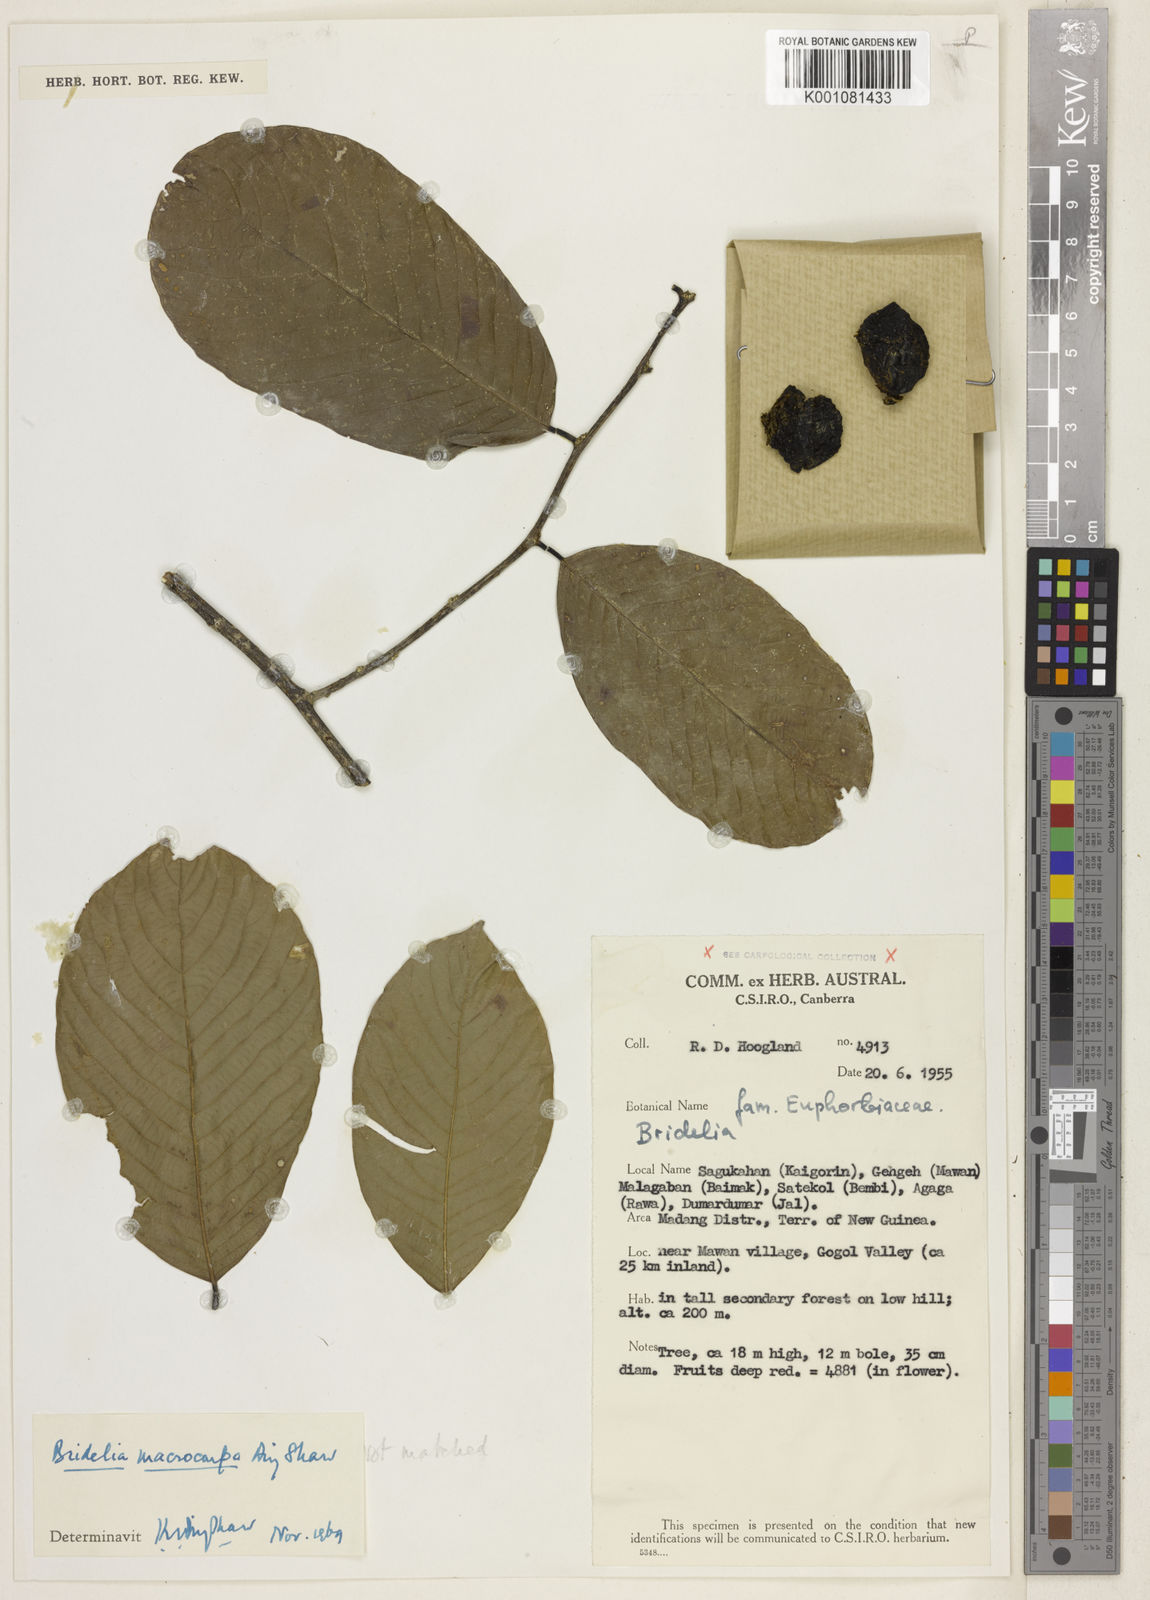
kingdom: Plantae
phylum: Tracheophyta
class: Magnoliopsida
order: Malpighiales
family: Phyllanthaceae
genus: Bridelia
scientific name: Bridelia macrocarpa
